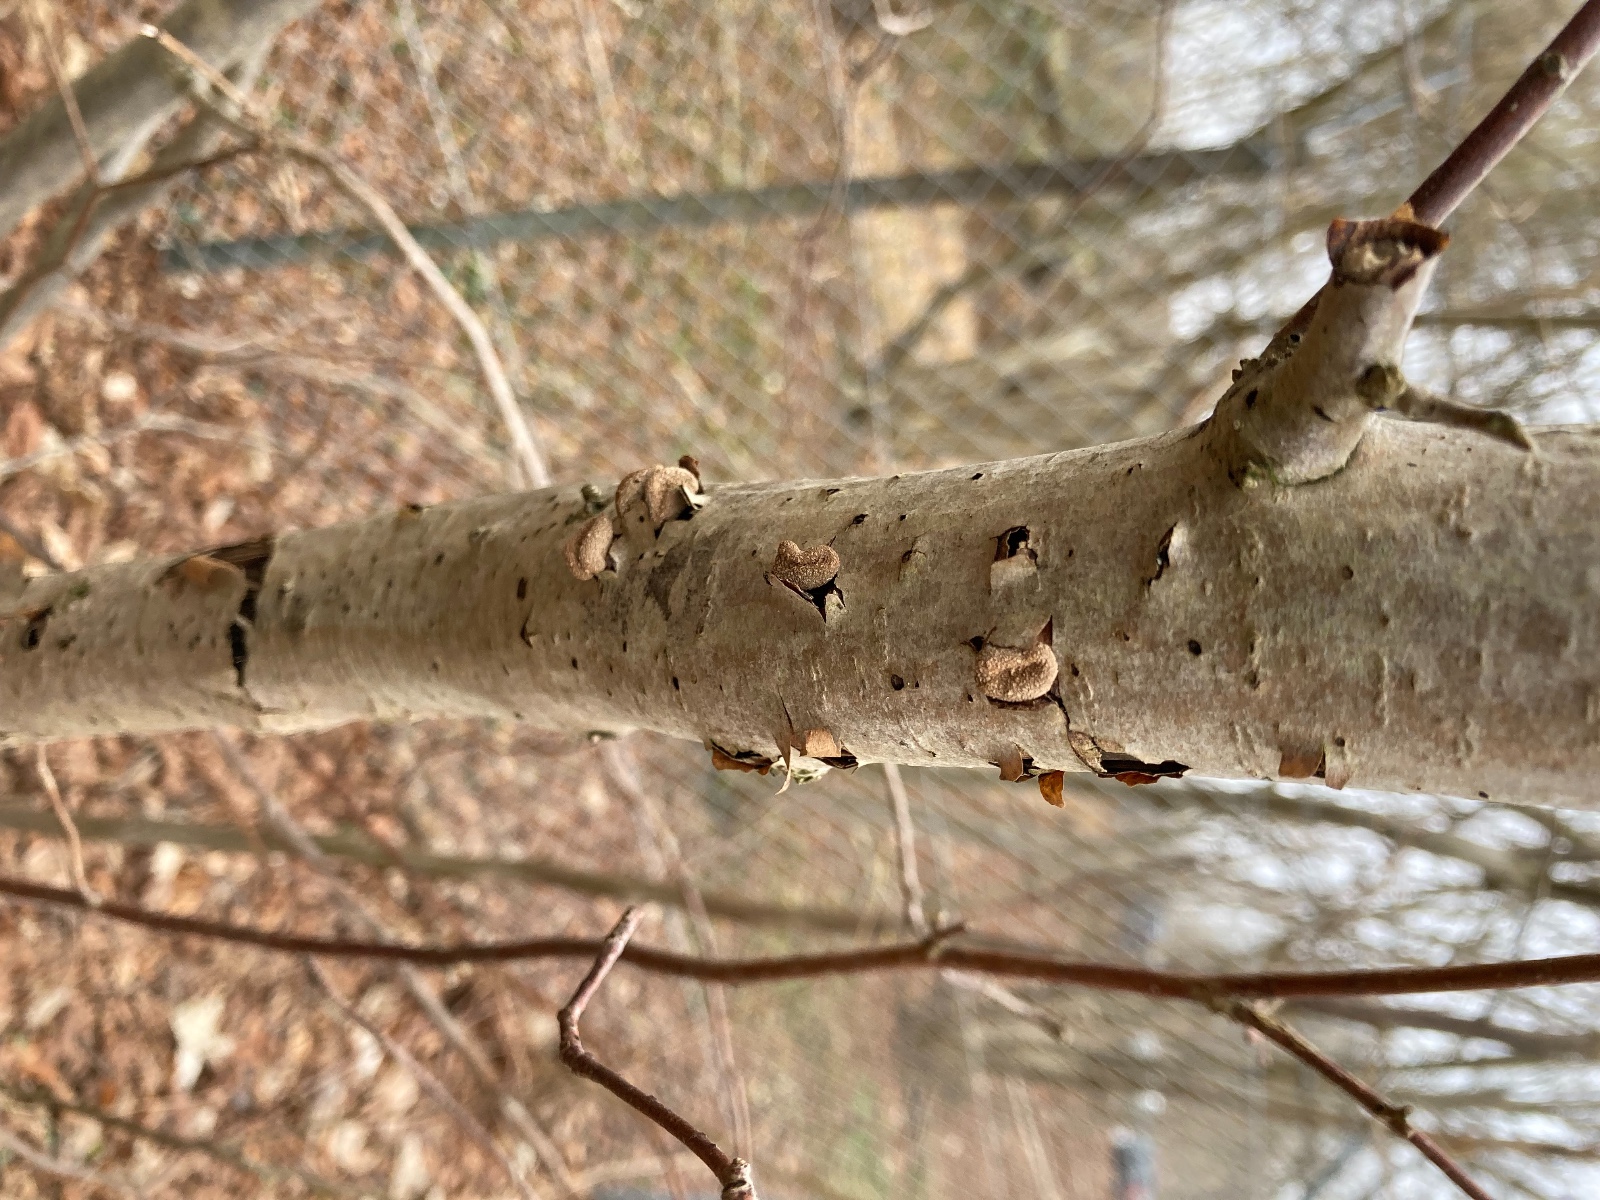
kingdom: Fungi
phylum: Ascomycota
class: Leotiomycetes
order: Helotiales
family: Cenangiaceae
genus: Encoelia
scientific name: Encoelia furfuracea
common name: hassel-læderskive
